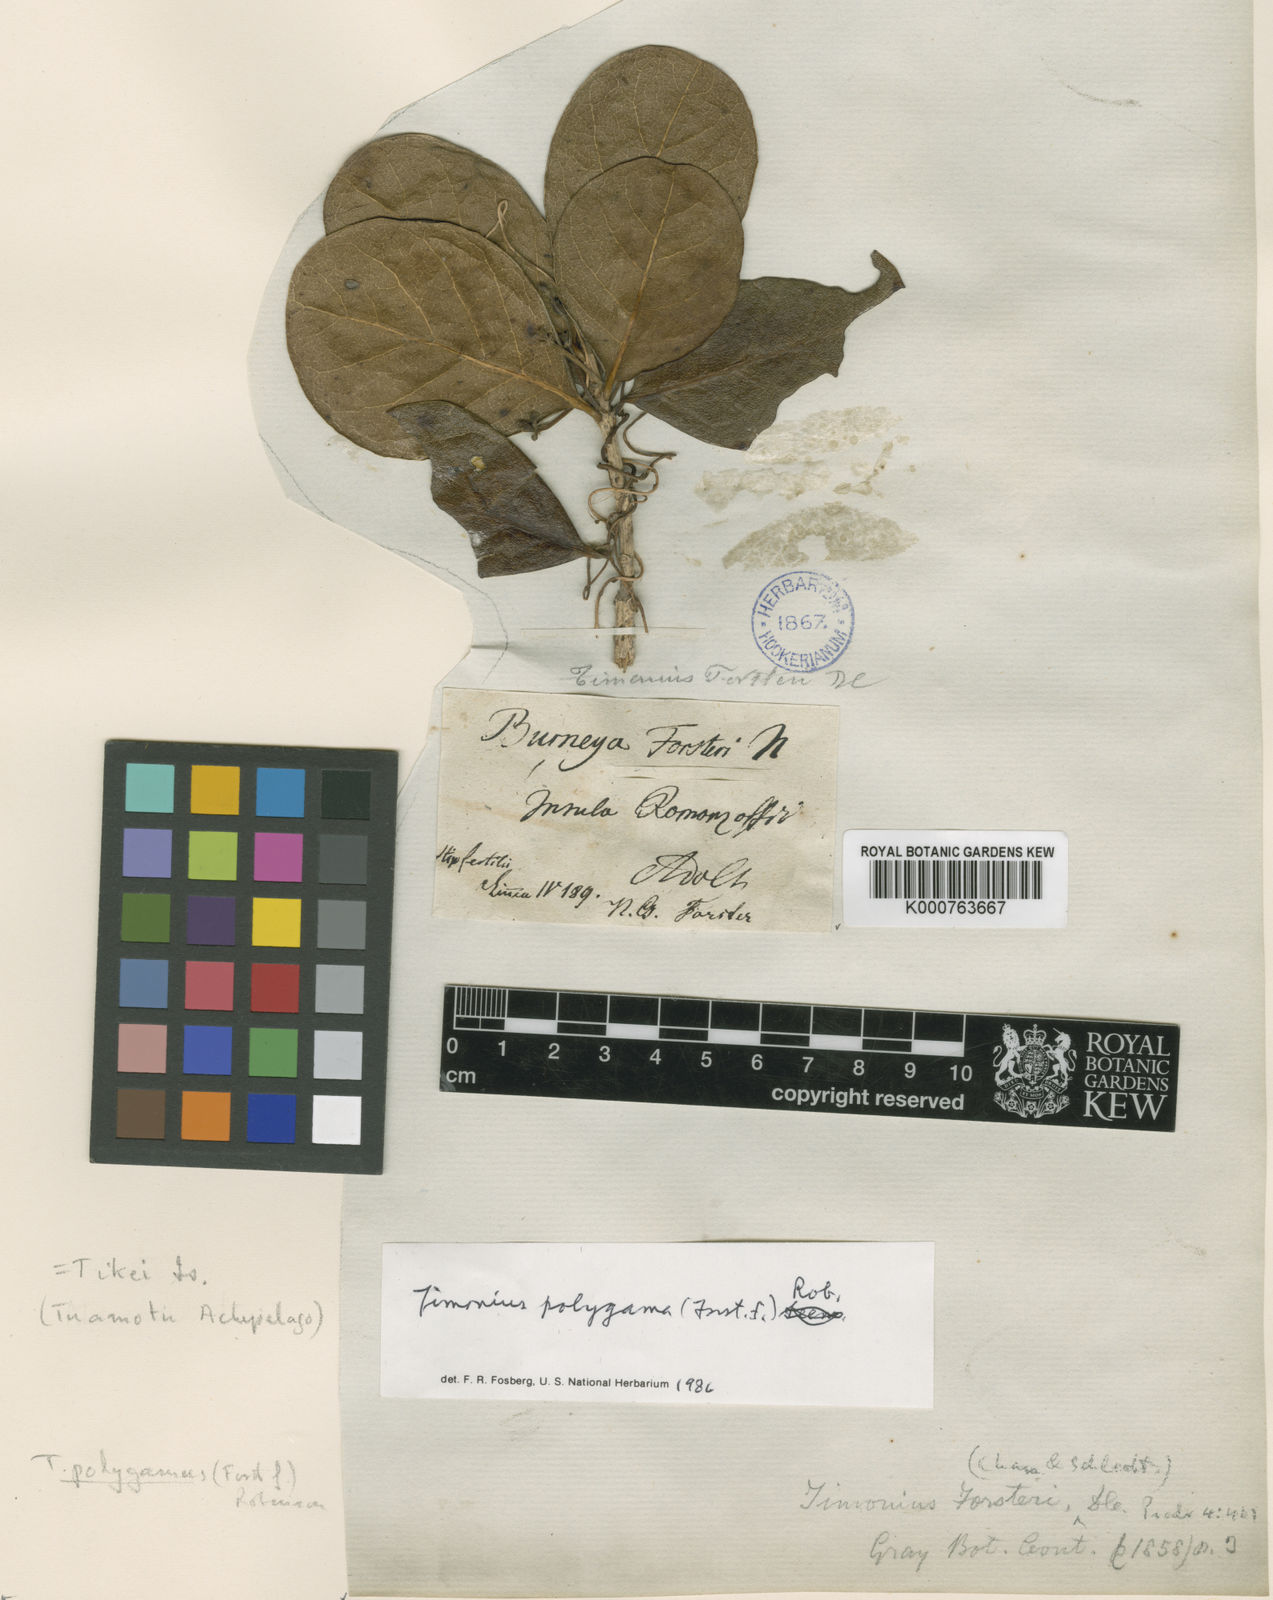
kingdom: Plantae
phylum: Tracheophyta
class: Magnoliopsida
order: Gentianales
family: Rubiaceae
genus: Timonius
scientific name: Timonius uniflorus
